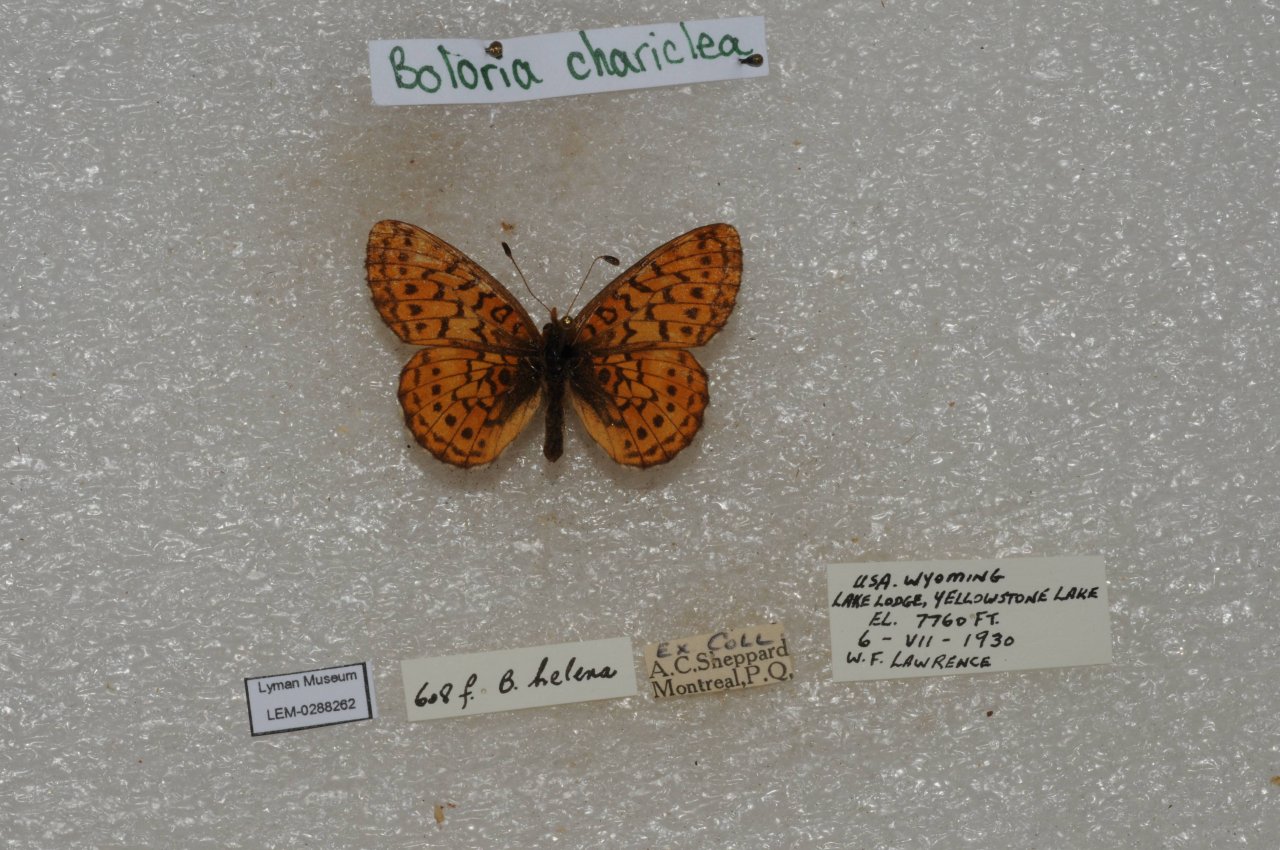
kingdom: Animalia
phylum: Arthropoda
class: Insecta
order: Lepidoptera
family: Nymphalidae
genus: Boloria
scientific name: Boloria chariclea
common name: Arctic Fritillary
